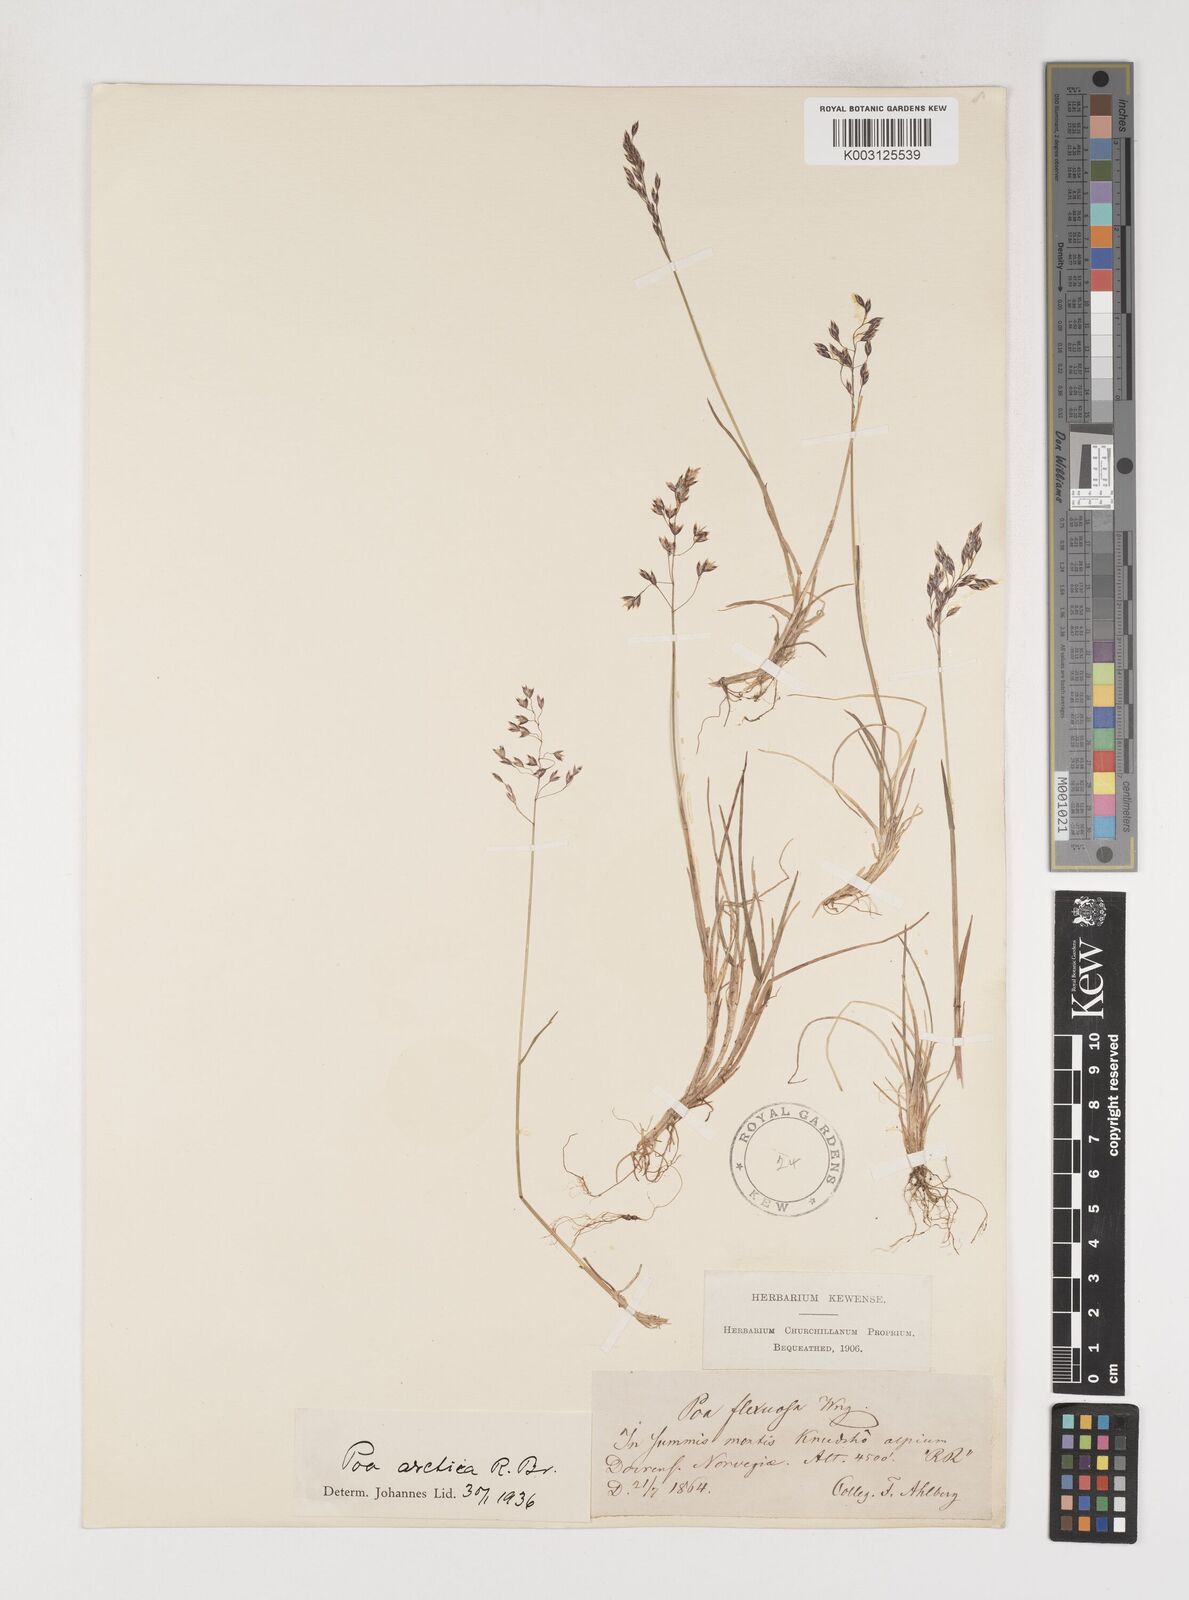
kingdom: Plantae
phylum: Tracheophyta
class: Liliopsida
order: Poales
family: Poaceae
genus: Poa
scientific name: Poa arctica
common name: Arctic bluegrass
